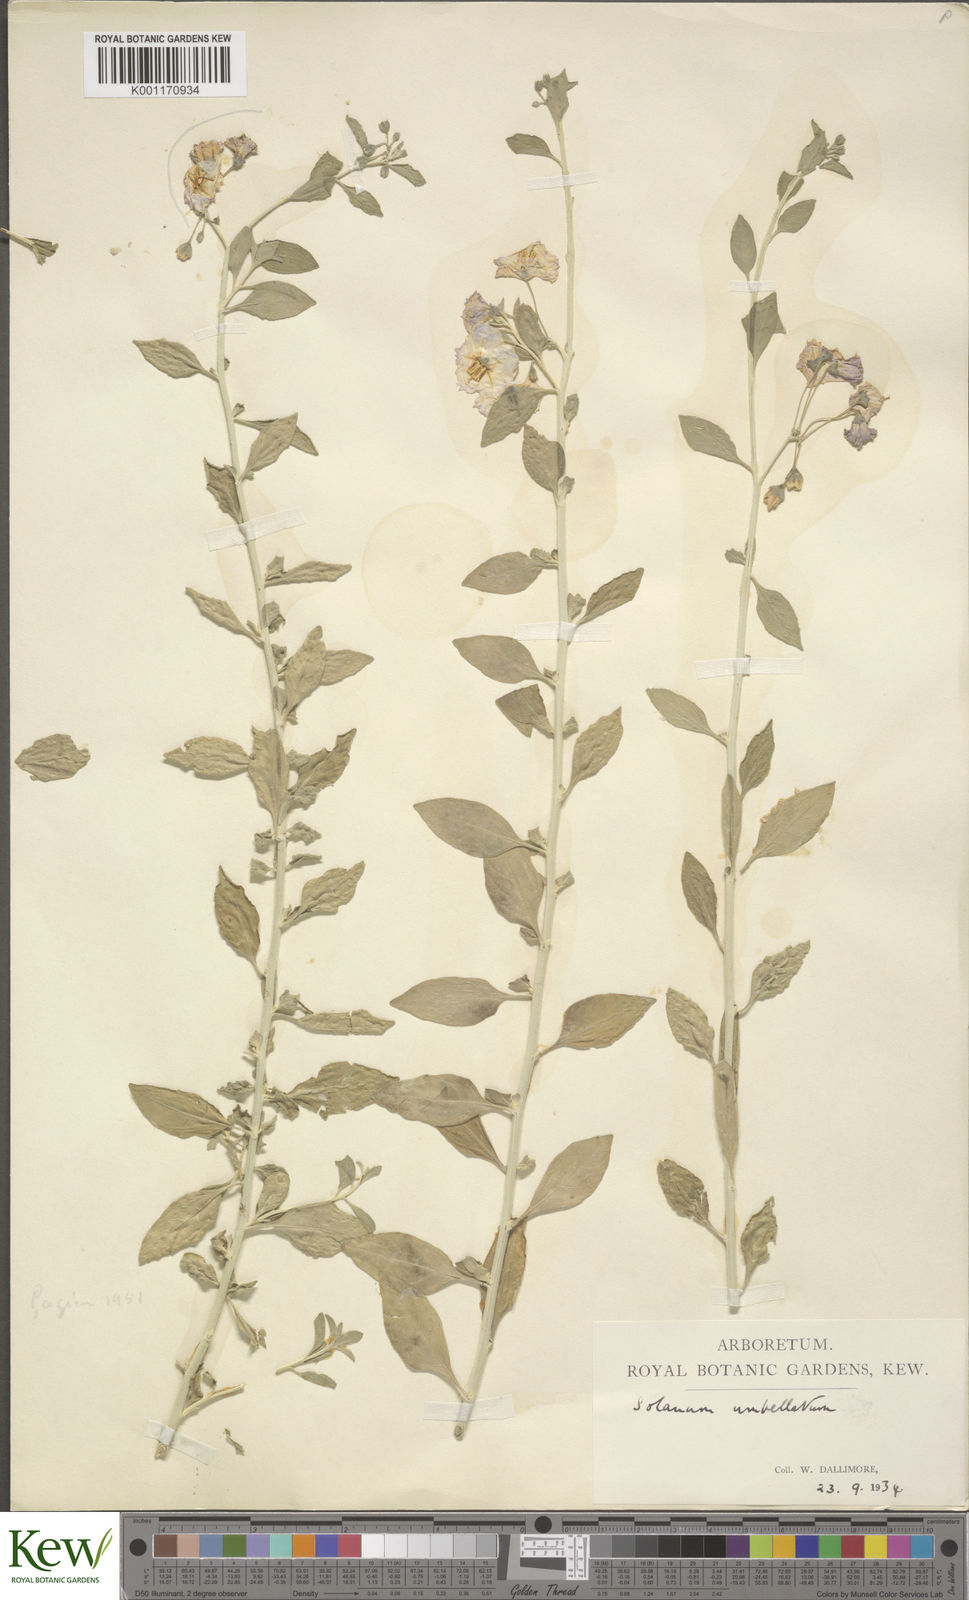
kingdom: Plantae
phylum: Tracheophyta
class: Magnoliopsida
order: Solanales
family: Solanaceae
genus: Solanum
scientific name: Solanum umbellatum
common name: Nightshade
